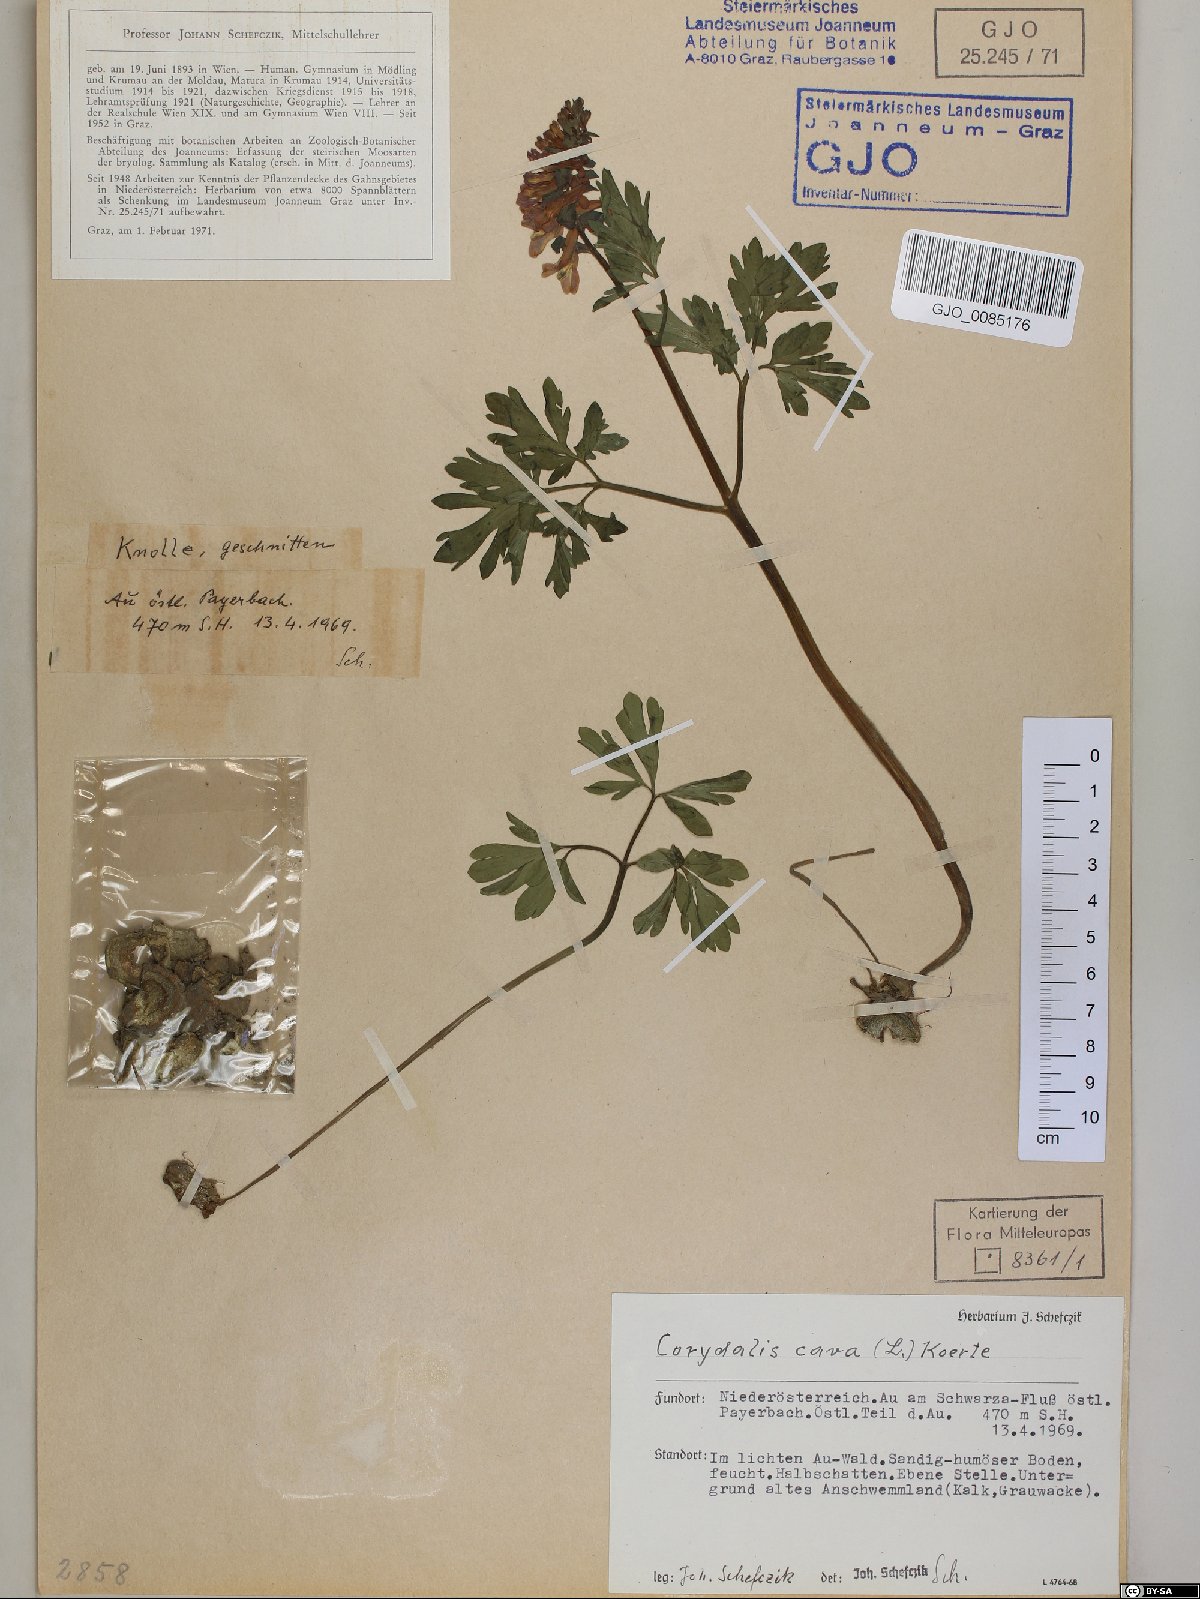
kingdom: Plantae
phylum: Tracheophyta
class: Magnoliopsida
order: Ranunculales
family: Papaveraceae
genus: Corydalis
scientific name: Corydalis cava
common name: Hollowroot
